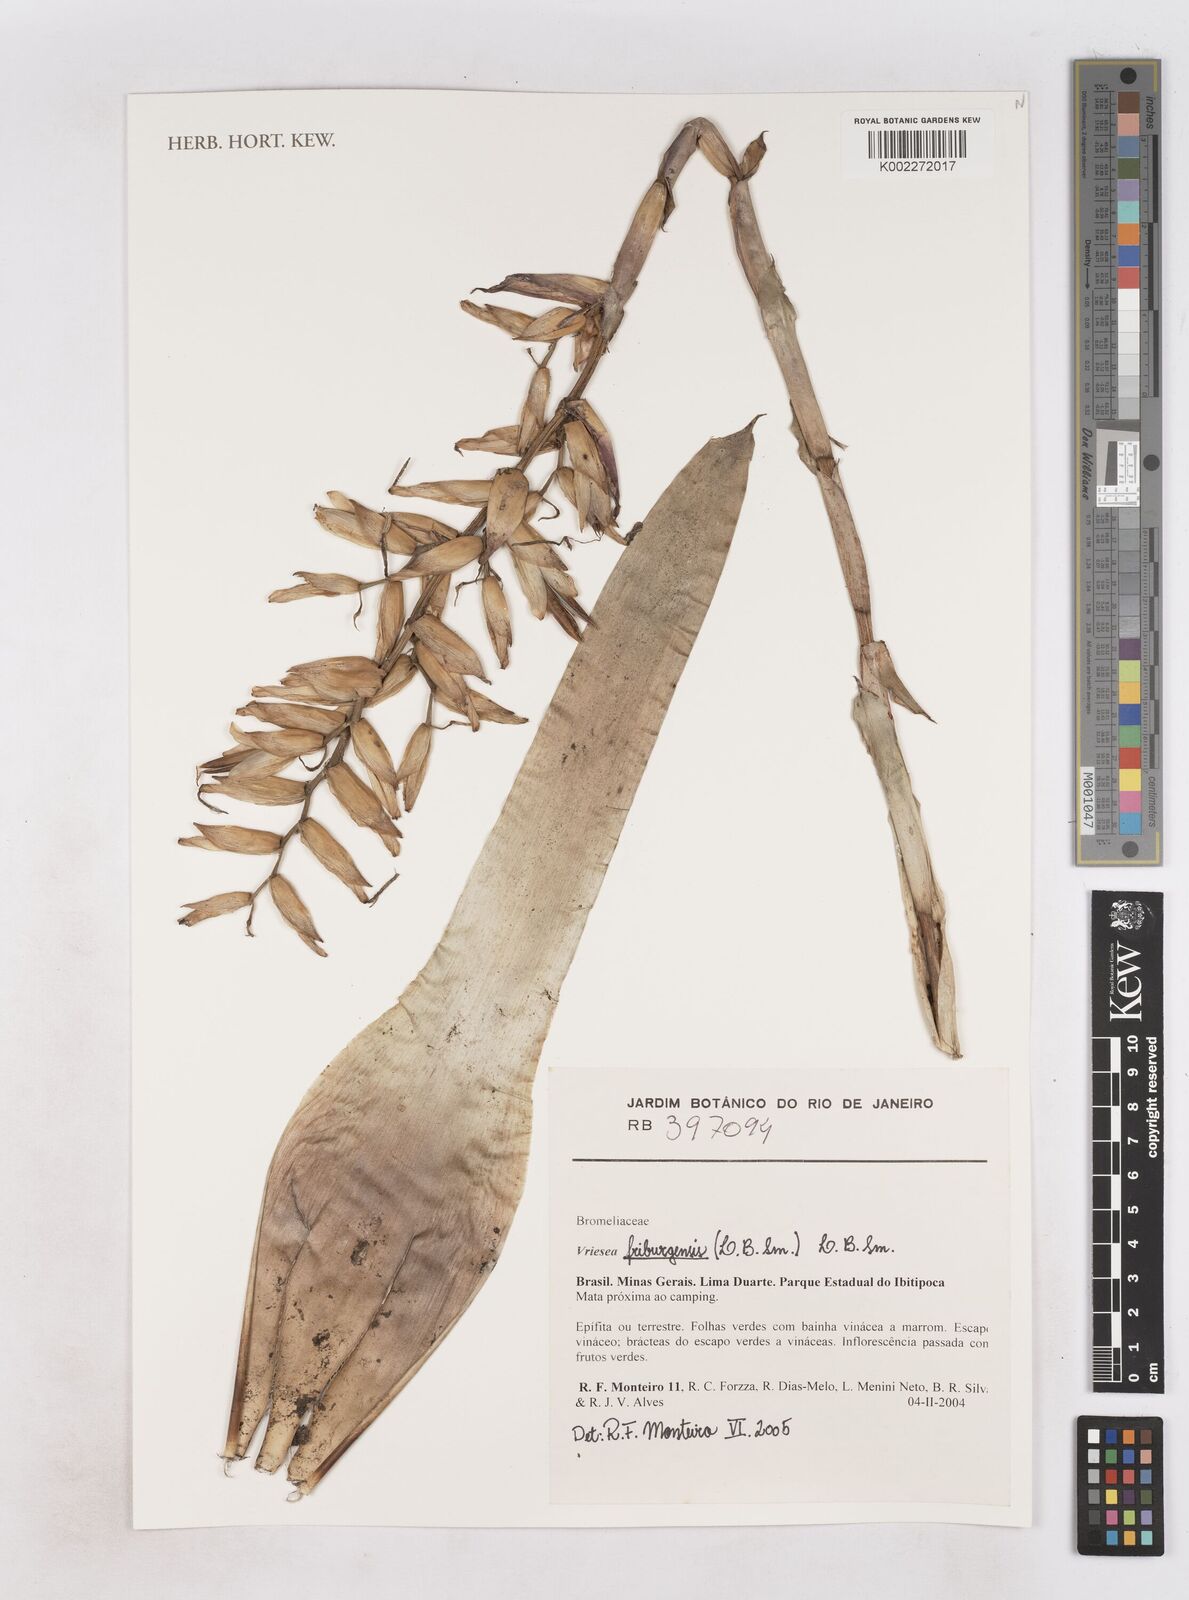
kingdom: Plantae
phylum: Tracheophyta
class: Liliopsida
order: Poales
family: Bromeliaceae
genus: Vriesea
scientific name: Vriesea friburgensis
